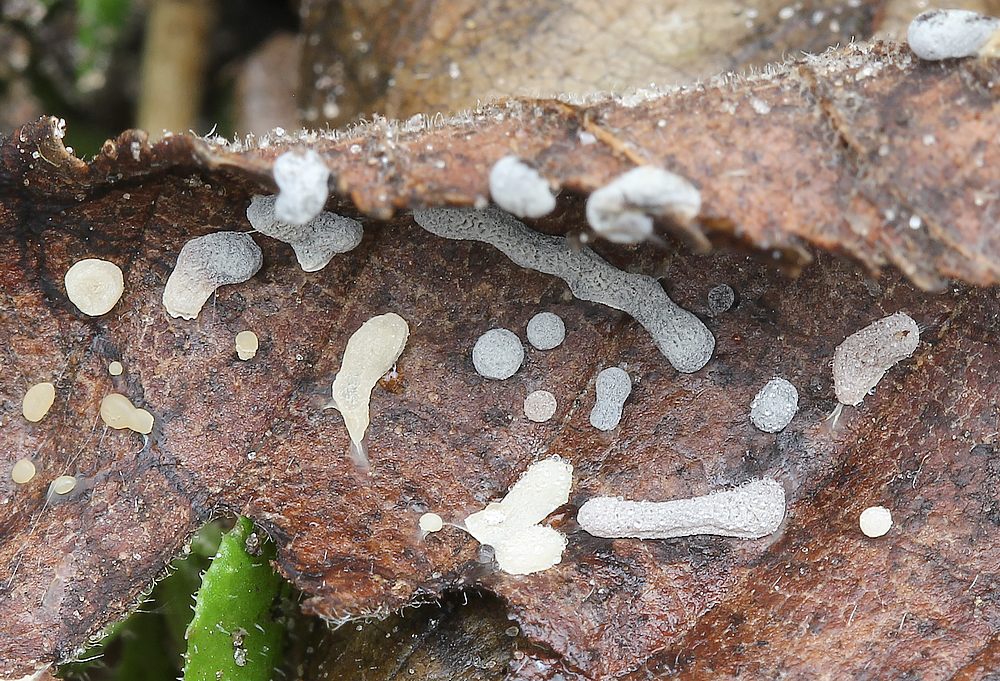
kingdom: Protozoa
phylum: Mycetozoa
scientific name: Mycetozoa
